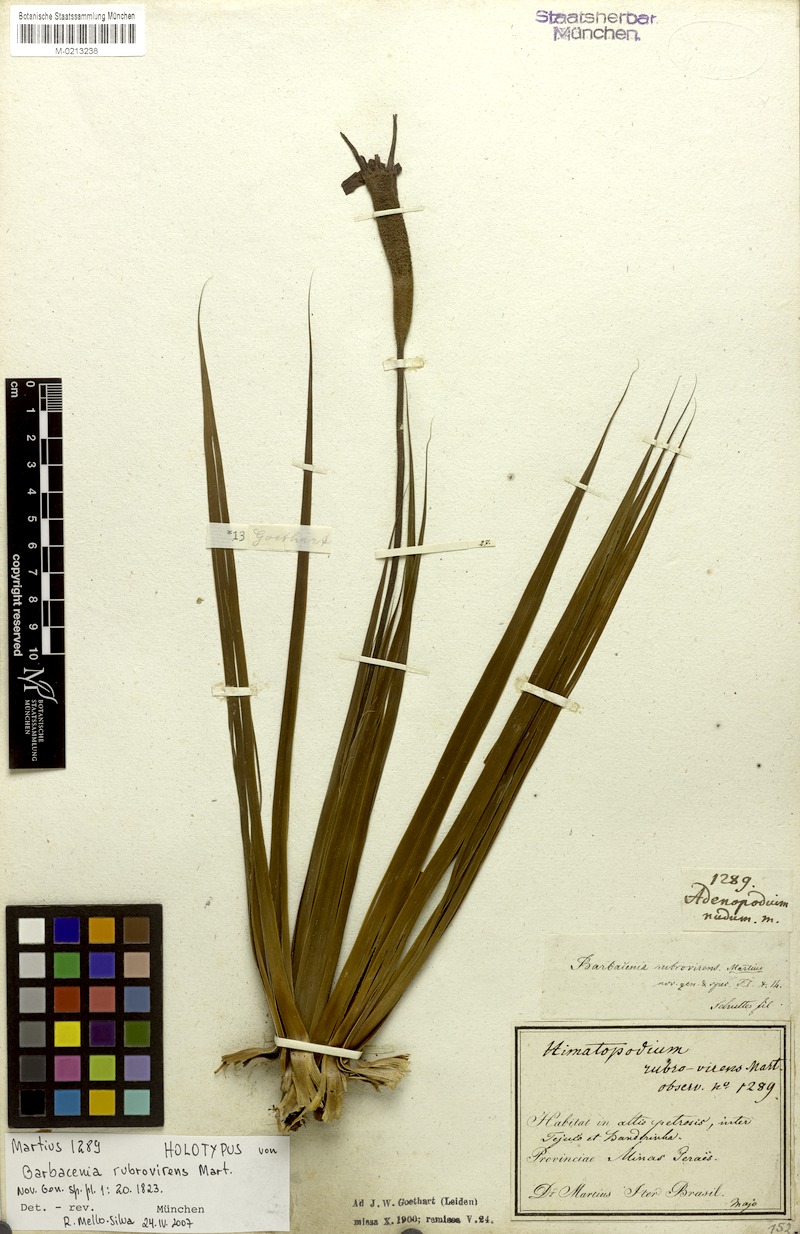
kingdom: Plantae
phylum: Tracheophyta
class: Liliopsida
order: Pandanales
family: Velloziaceae
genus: Barbacenia
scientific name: Barbacenia rubrovirens
